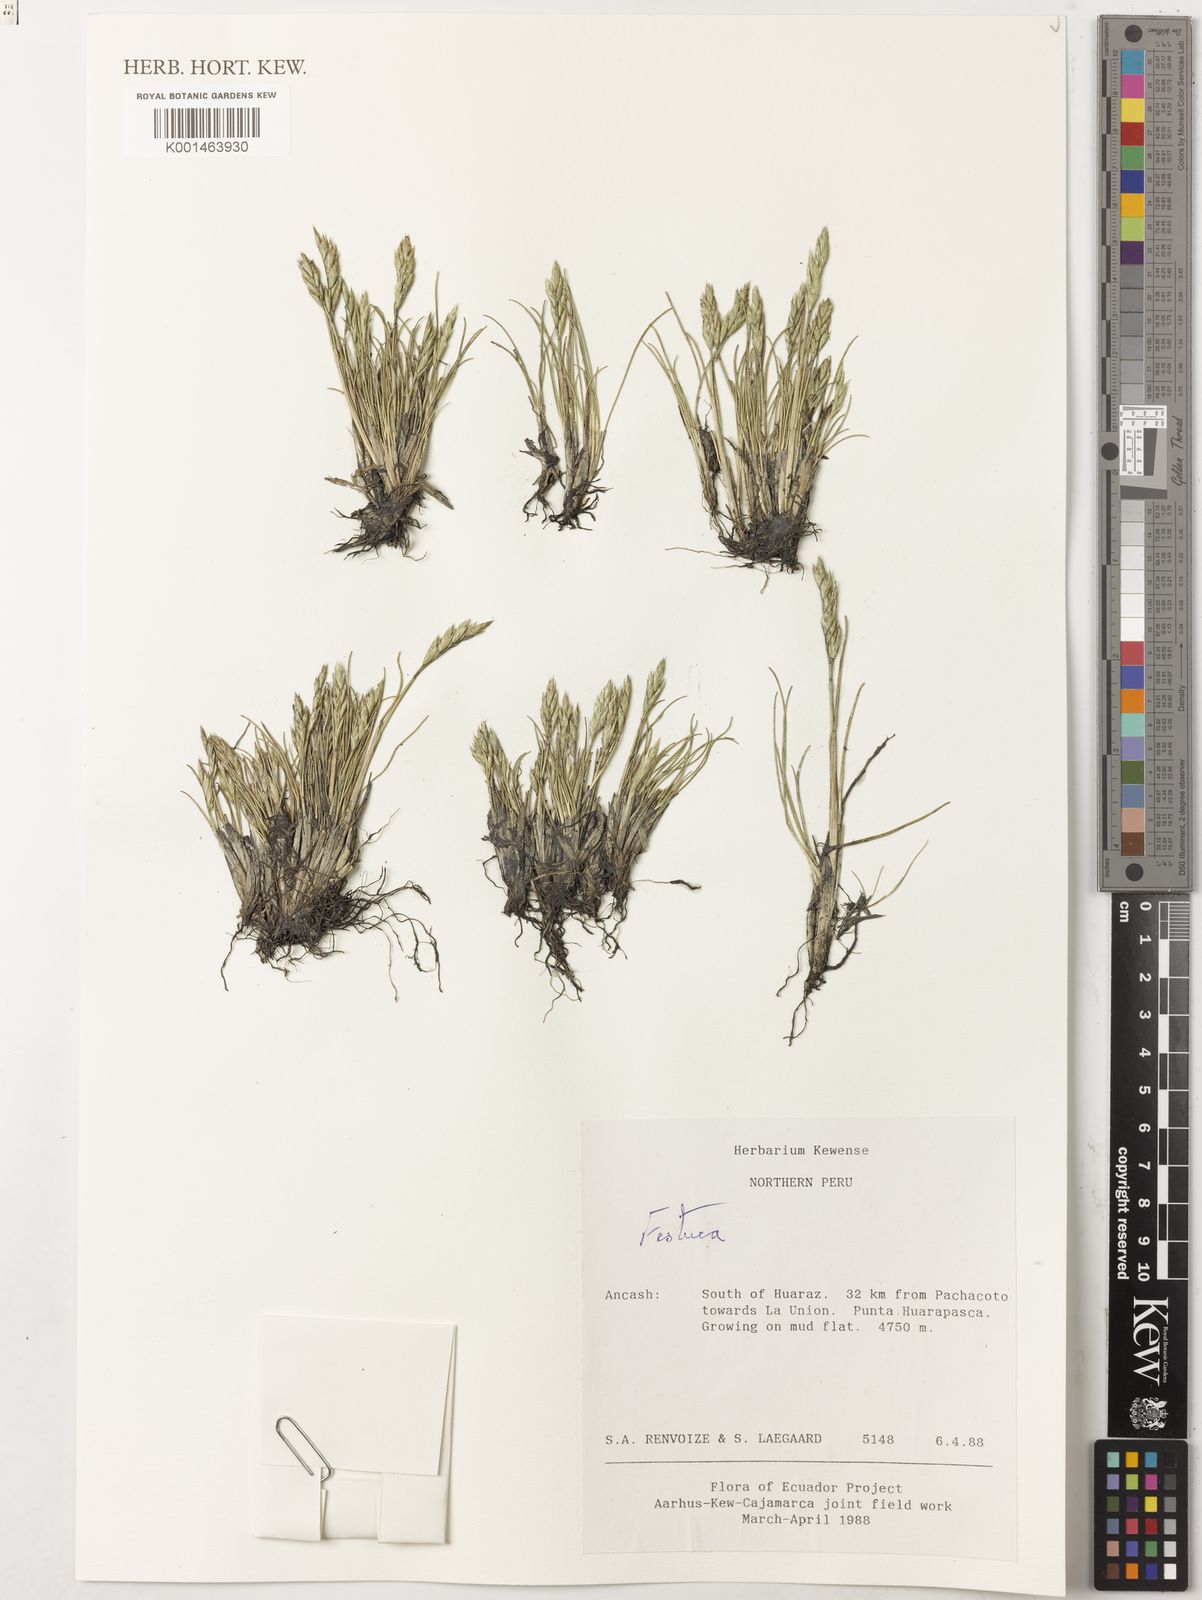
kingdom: Plantae
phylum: Tracheophyta
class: Liliopsida
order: Poales
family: Poaceae
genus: Festuca
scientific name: Festuca peruviana
